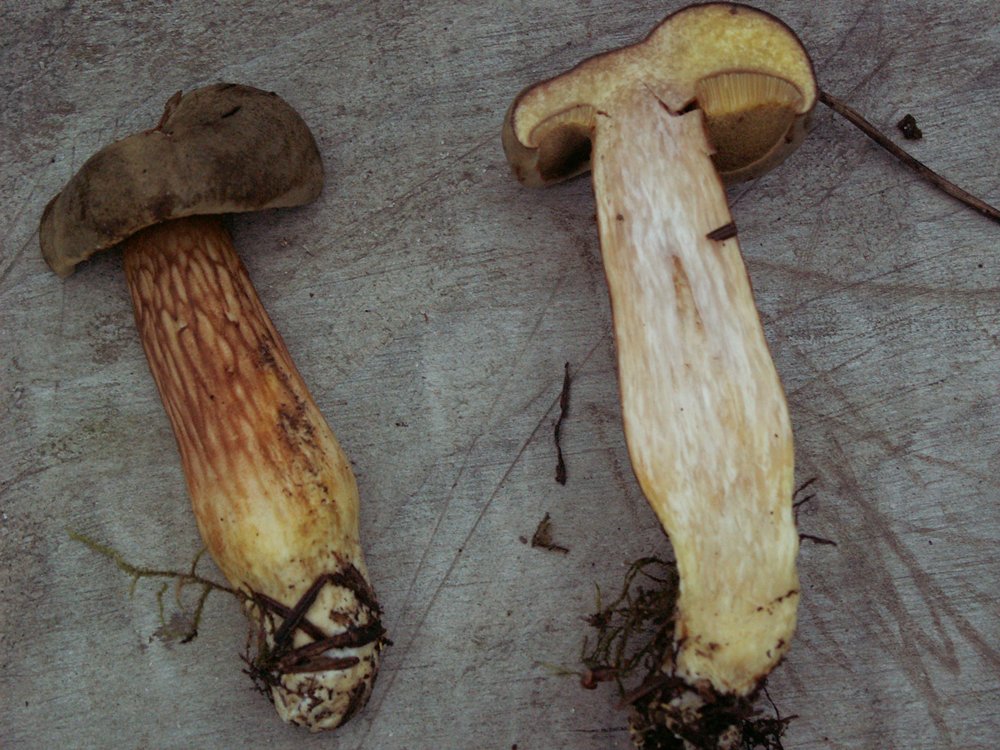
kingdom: Fungi
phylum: Basidiomycota
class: Agaricomycetes
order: Boletales
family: Boletaceae
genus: Xerocomus
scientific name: Xerocomus subtomentosus
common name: filtet rørhat
